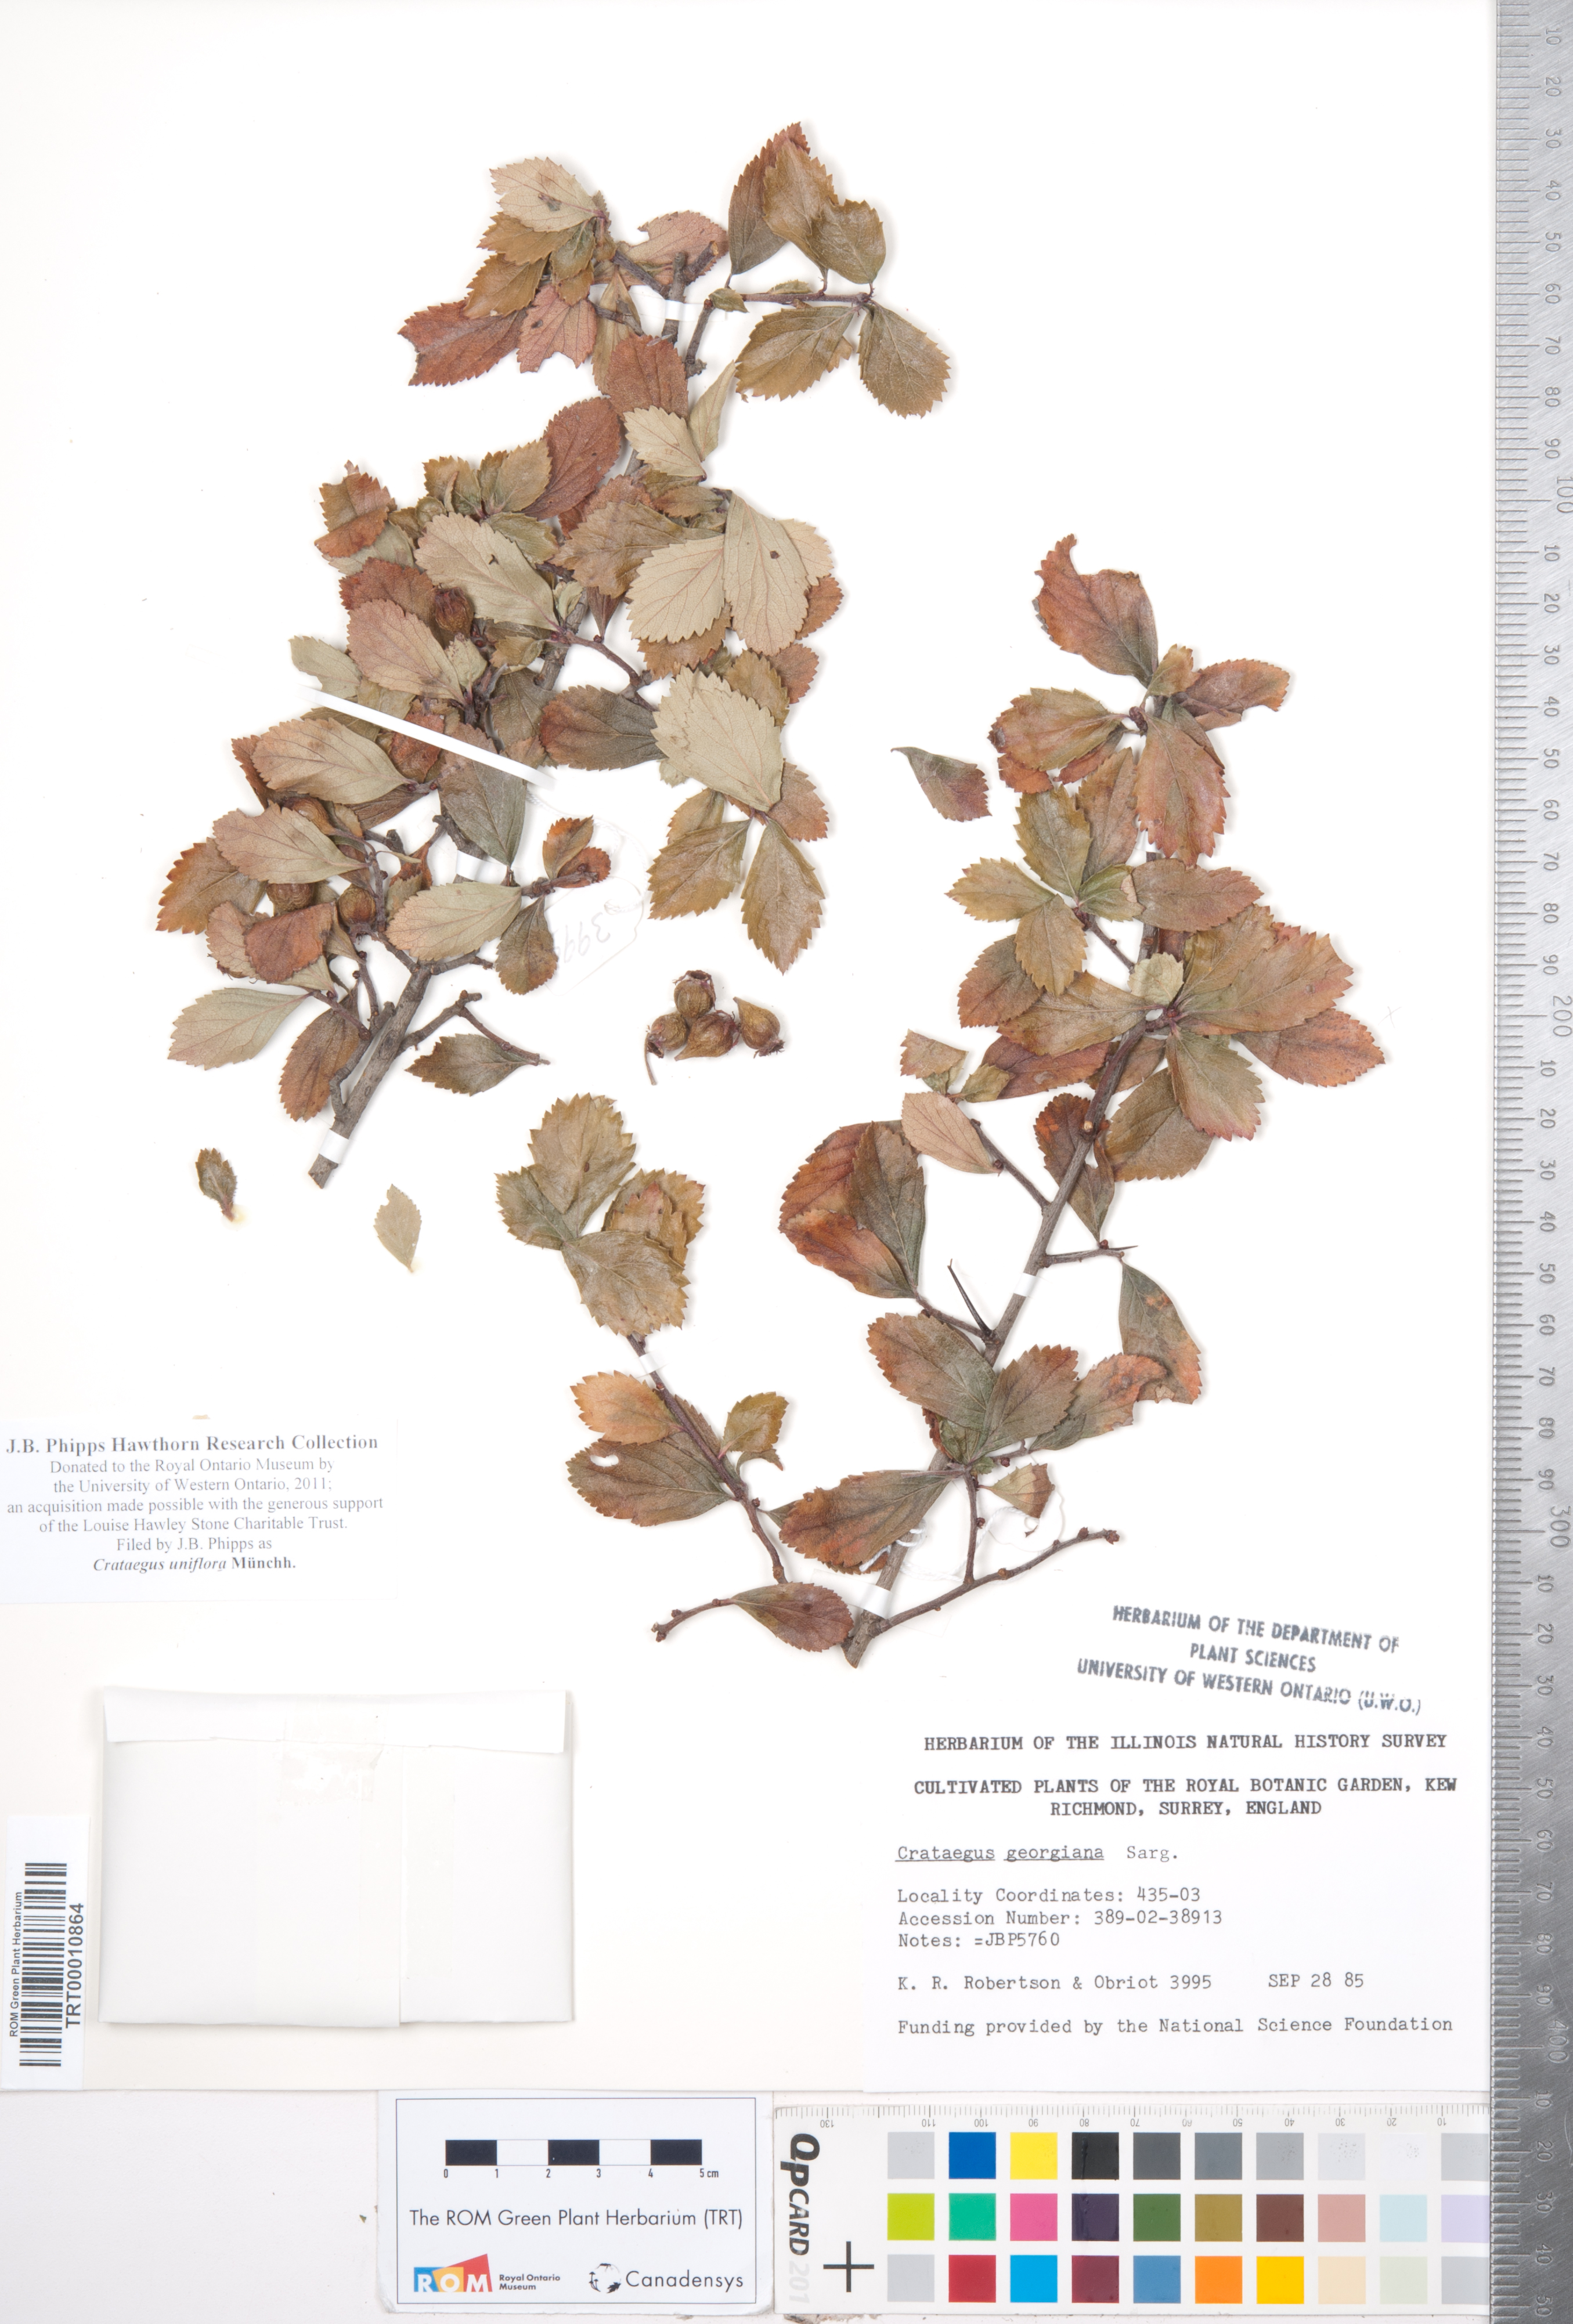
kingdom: Plantae
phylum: Tracheophyta
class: Magnoliopsida
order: Rosales
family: Rosaceae
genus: Crataegus
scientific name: Crataegus uniflora
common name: One-flower hawthorn
